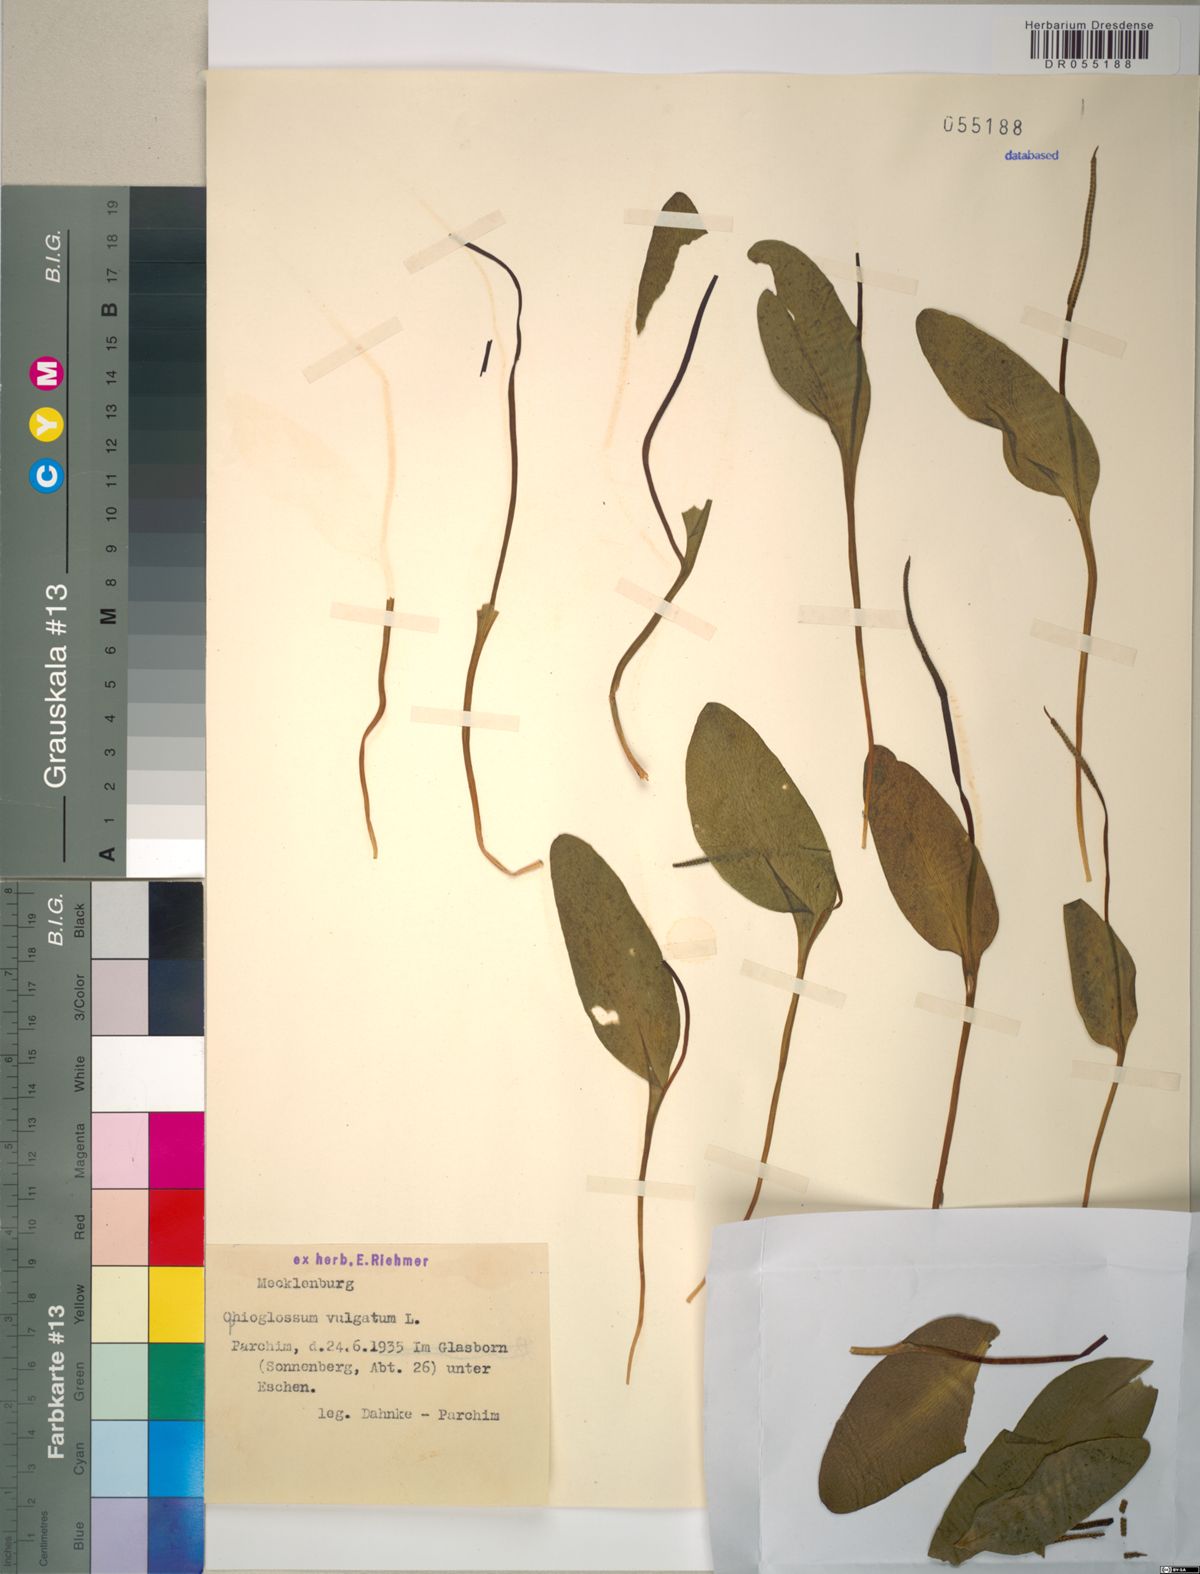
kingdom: Plantae
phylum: Tracheophyta
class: Polypodiopsida
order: Ophioglossales
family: Ophioglossaceae
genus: Ophioglossum
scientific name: Ophioglossum vulgatum
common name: Adder's-tongue
